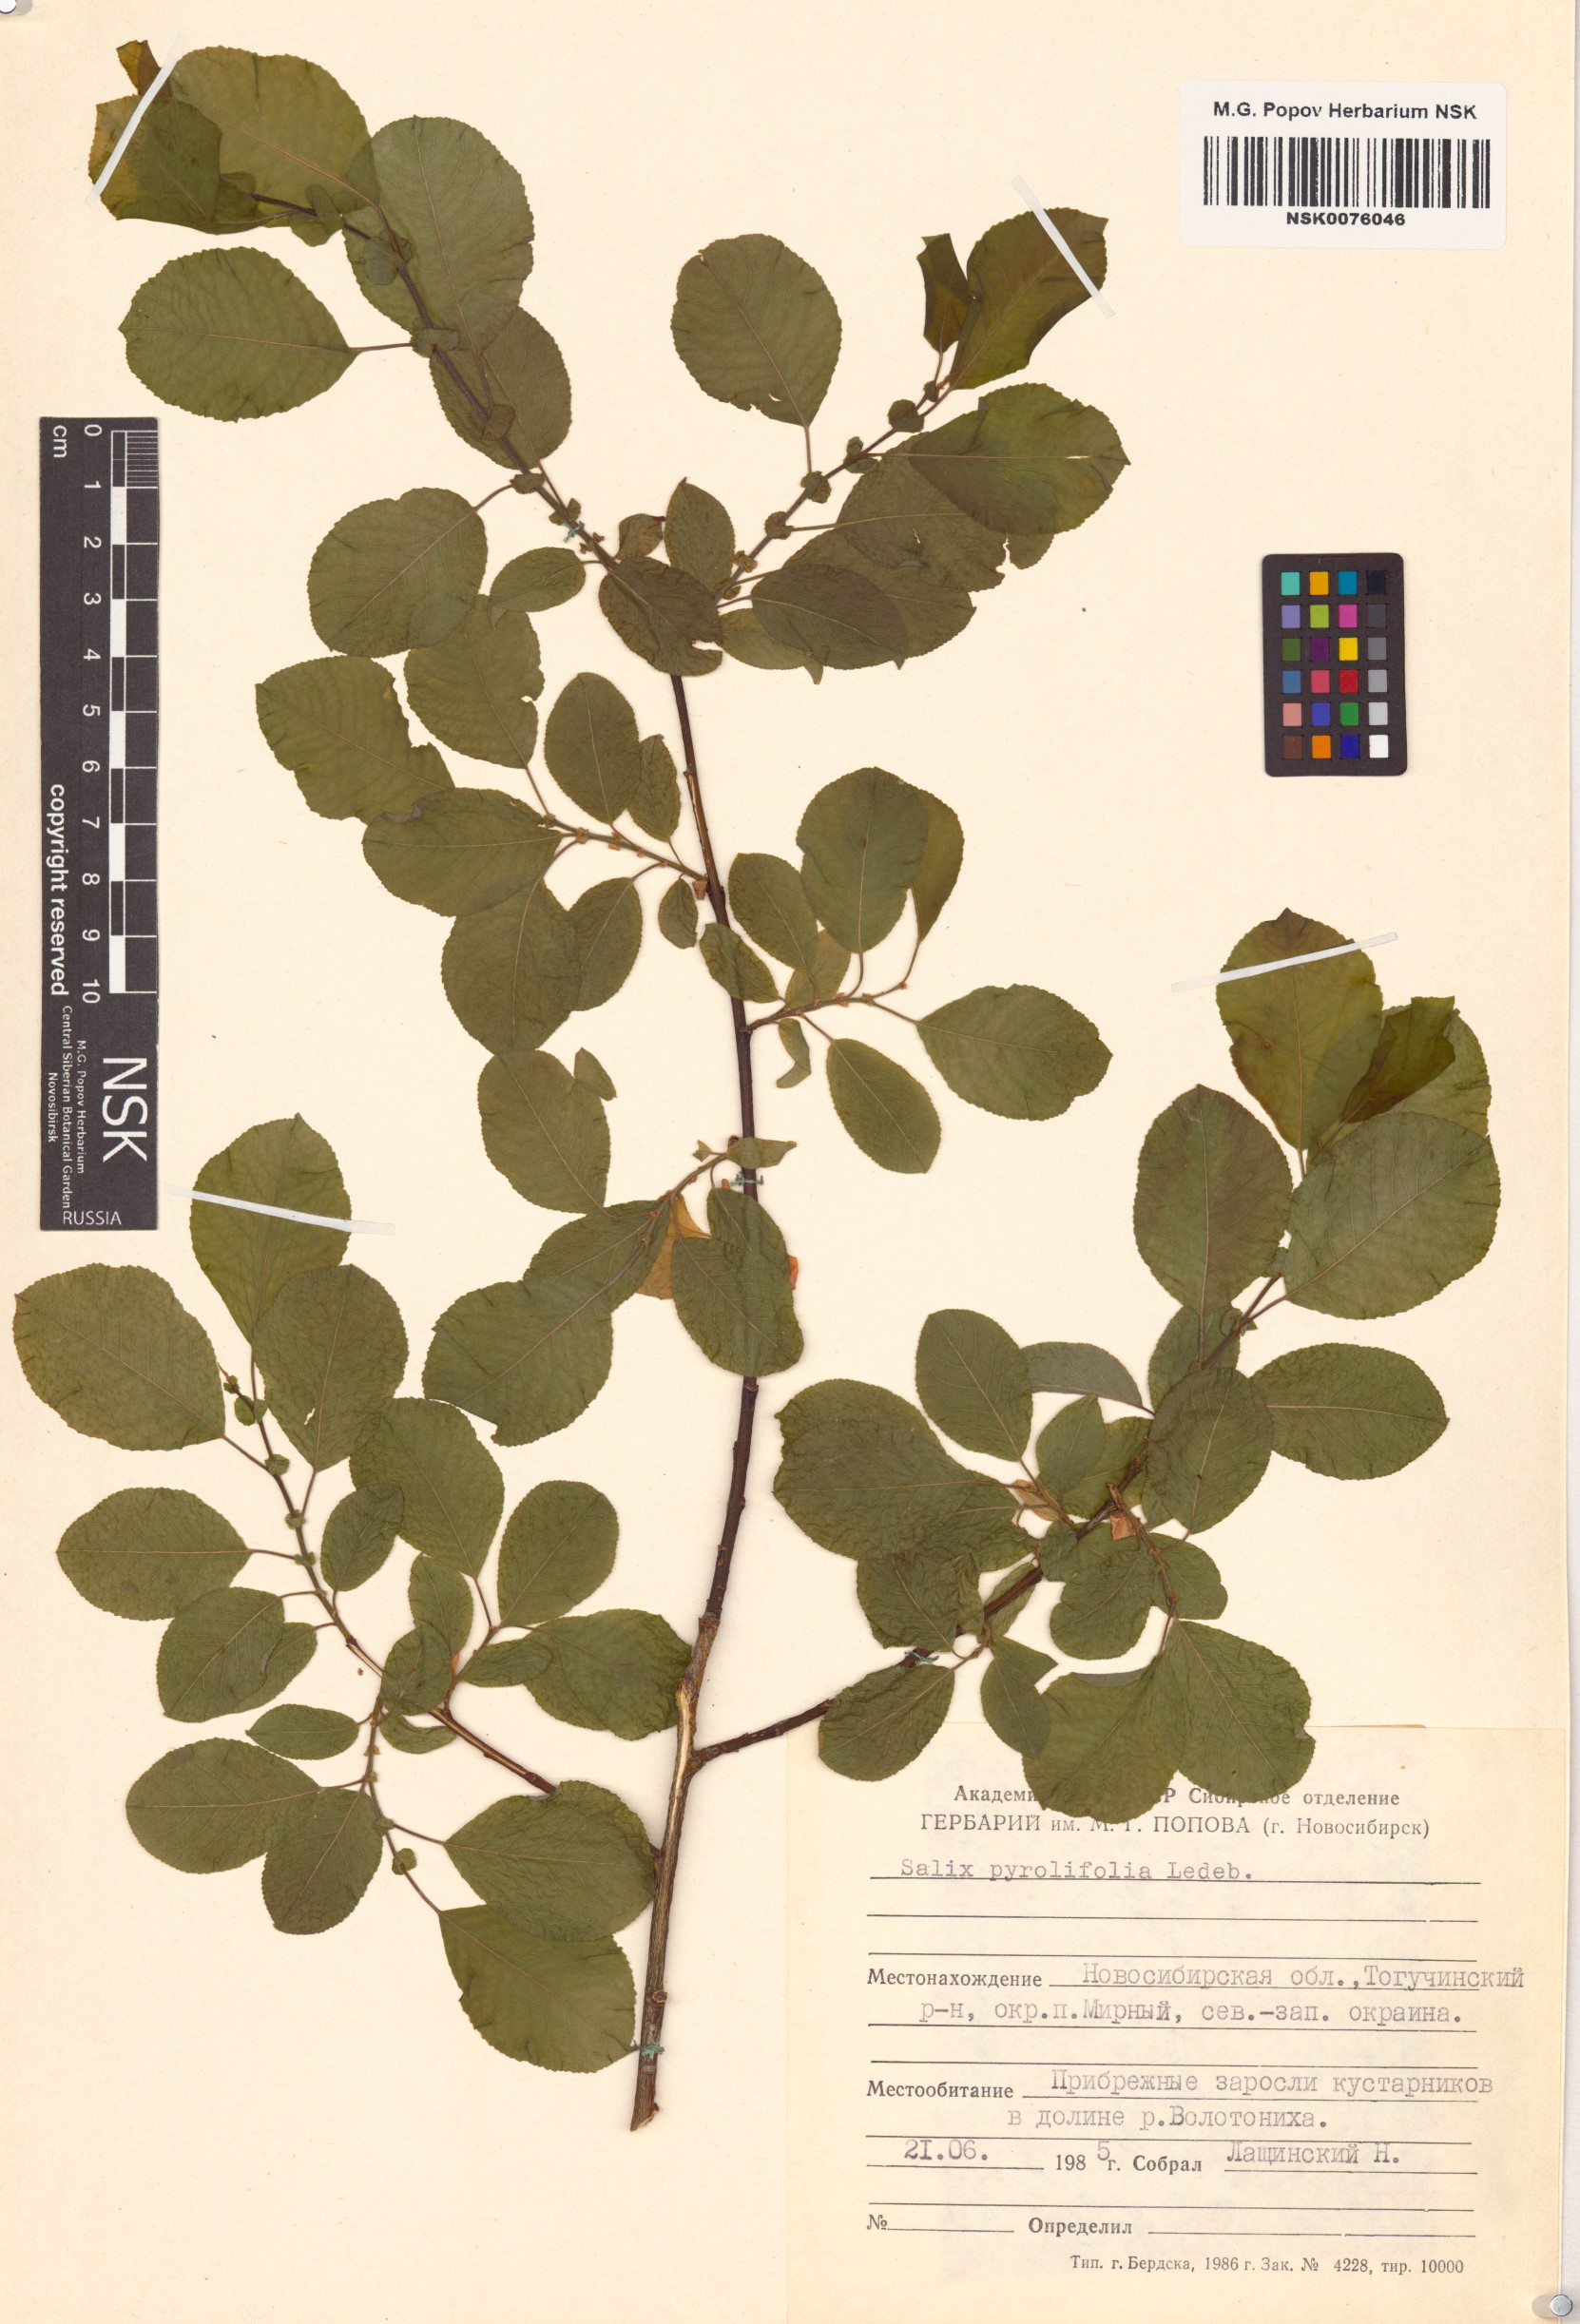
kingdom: Plantae
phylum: Tracheophyta
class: Magnoliopsida
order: Malpighiales
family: Salicaceae
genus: Salix
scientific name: Salix pyrolifolia
